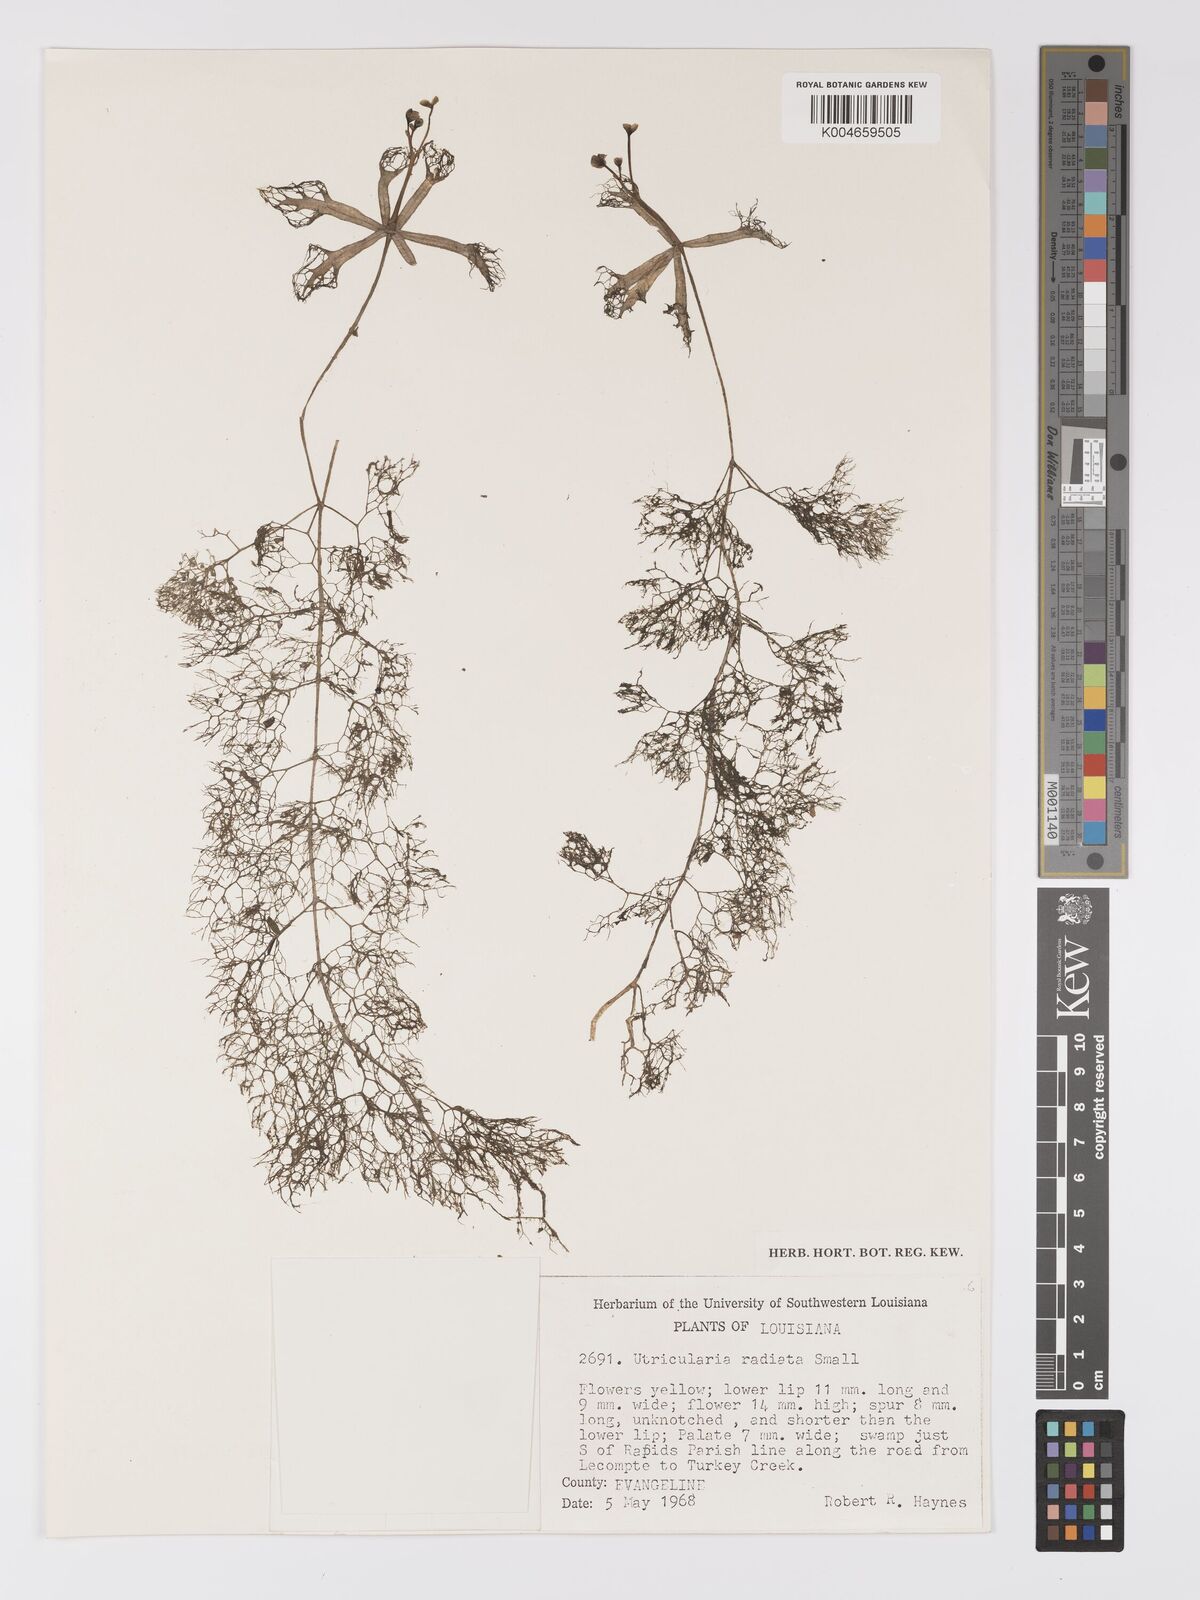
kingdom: Plantae
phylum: Tracheophyta
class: Magnoliopsida
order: Lamiales
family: Lentibulariaceae
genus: Utricularia
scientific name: Utricularia radiata
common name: Floating bladderwort
